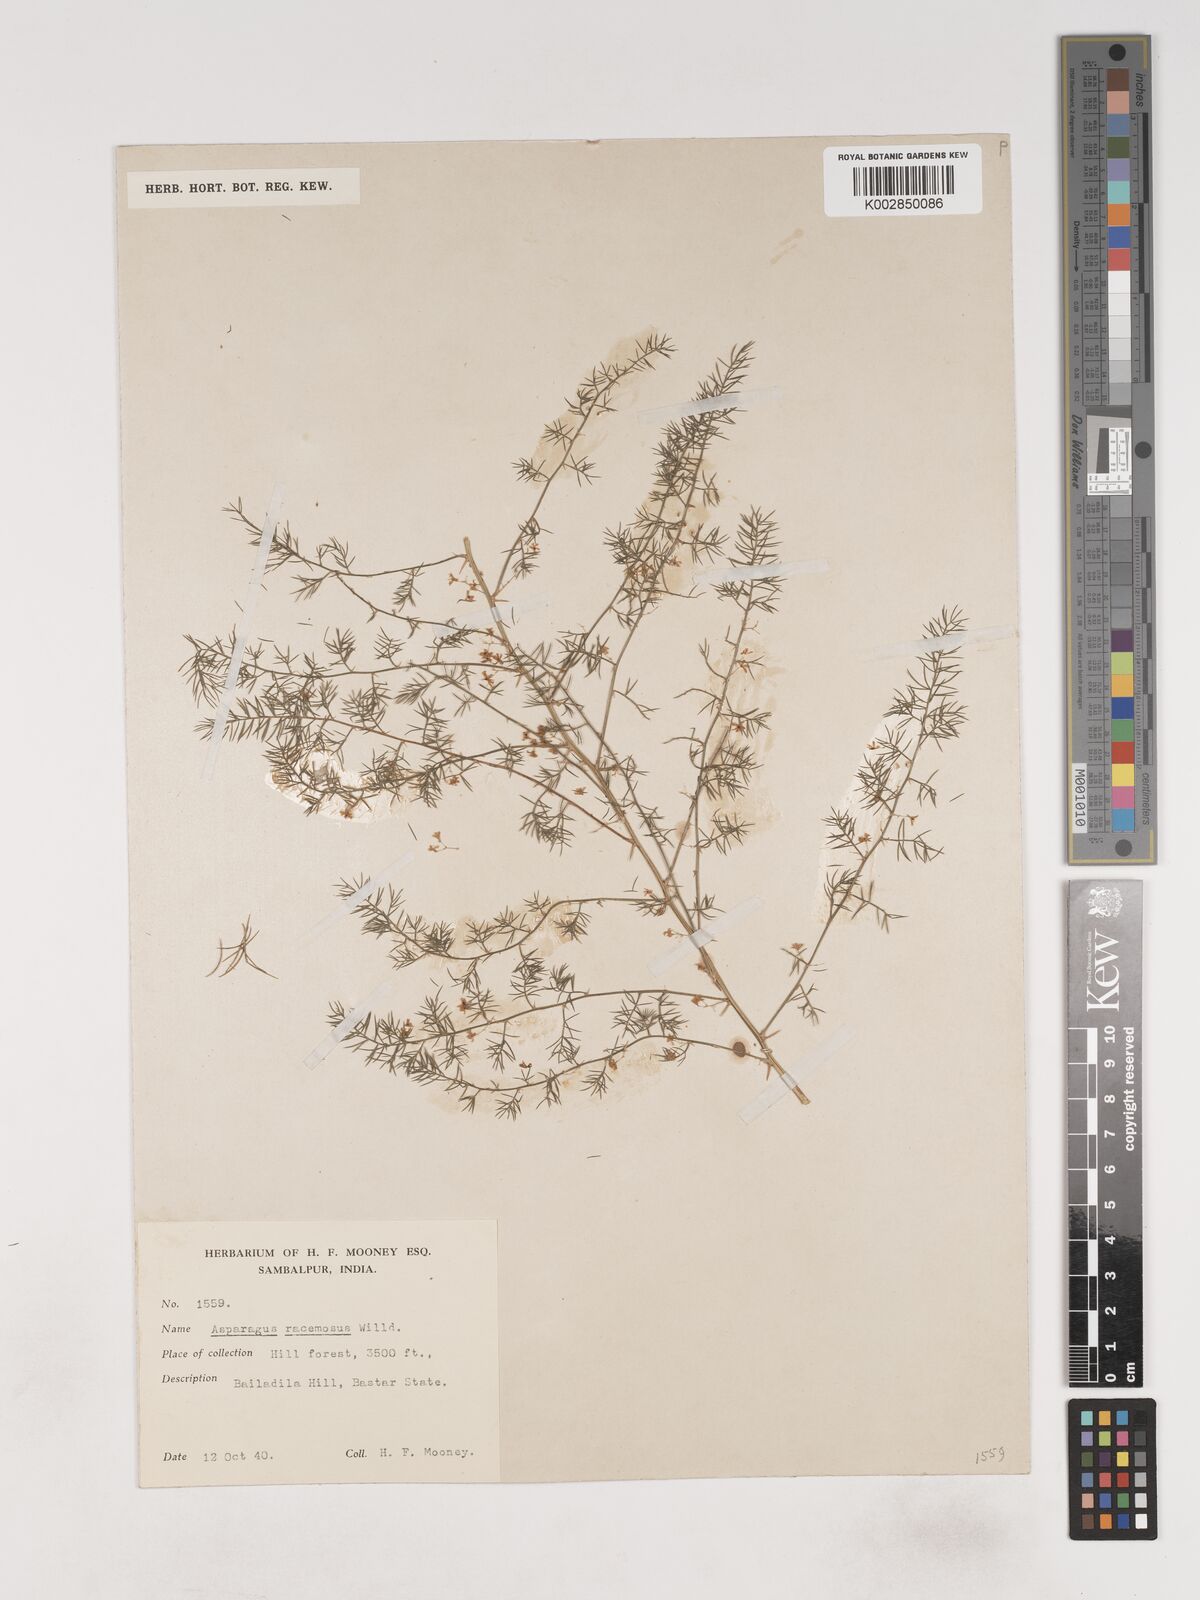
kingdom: Plantae
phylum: Tracheophyta
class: Liliopsida
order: Asparagales
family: Asparagaceae
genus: Asparagus
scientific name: Asparagus racemosus
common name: Asparagus-fern
